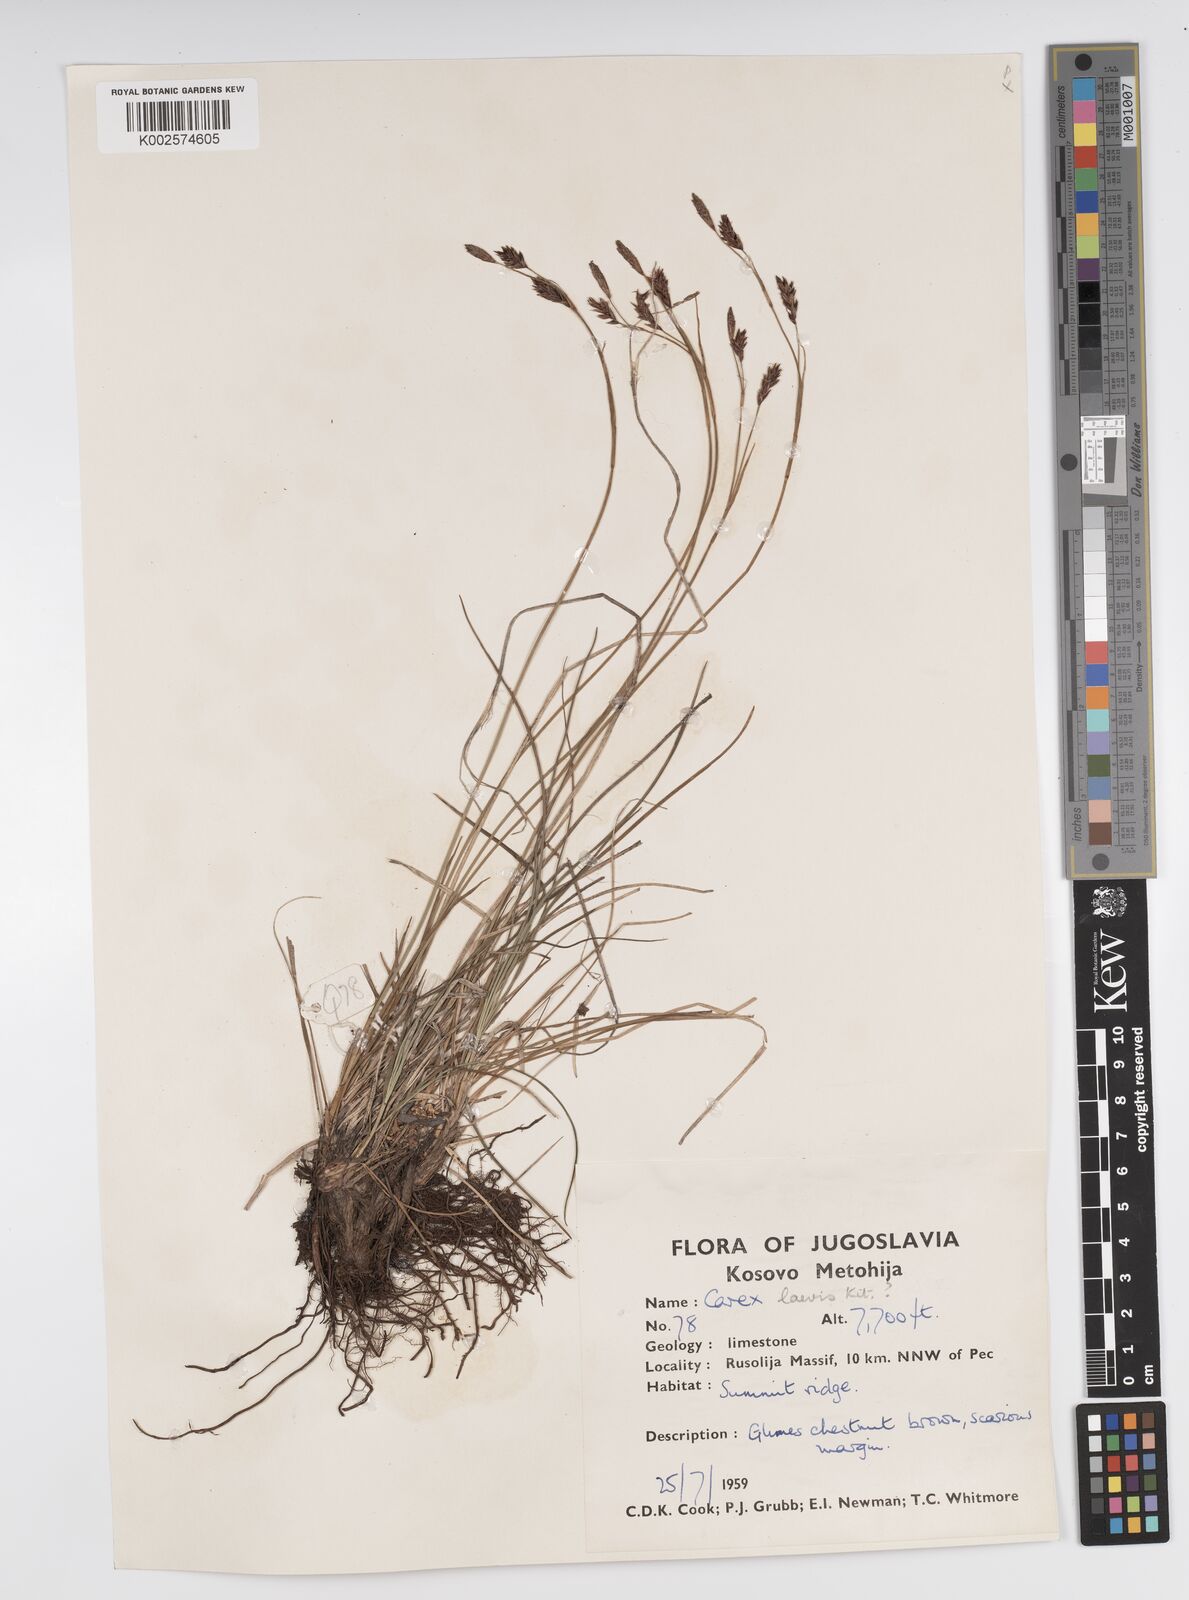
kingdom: Plantae
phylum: Tracheophyta
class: Liliopsida
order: Poales
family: Cyperaceae
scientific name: Cyperaceae
